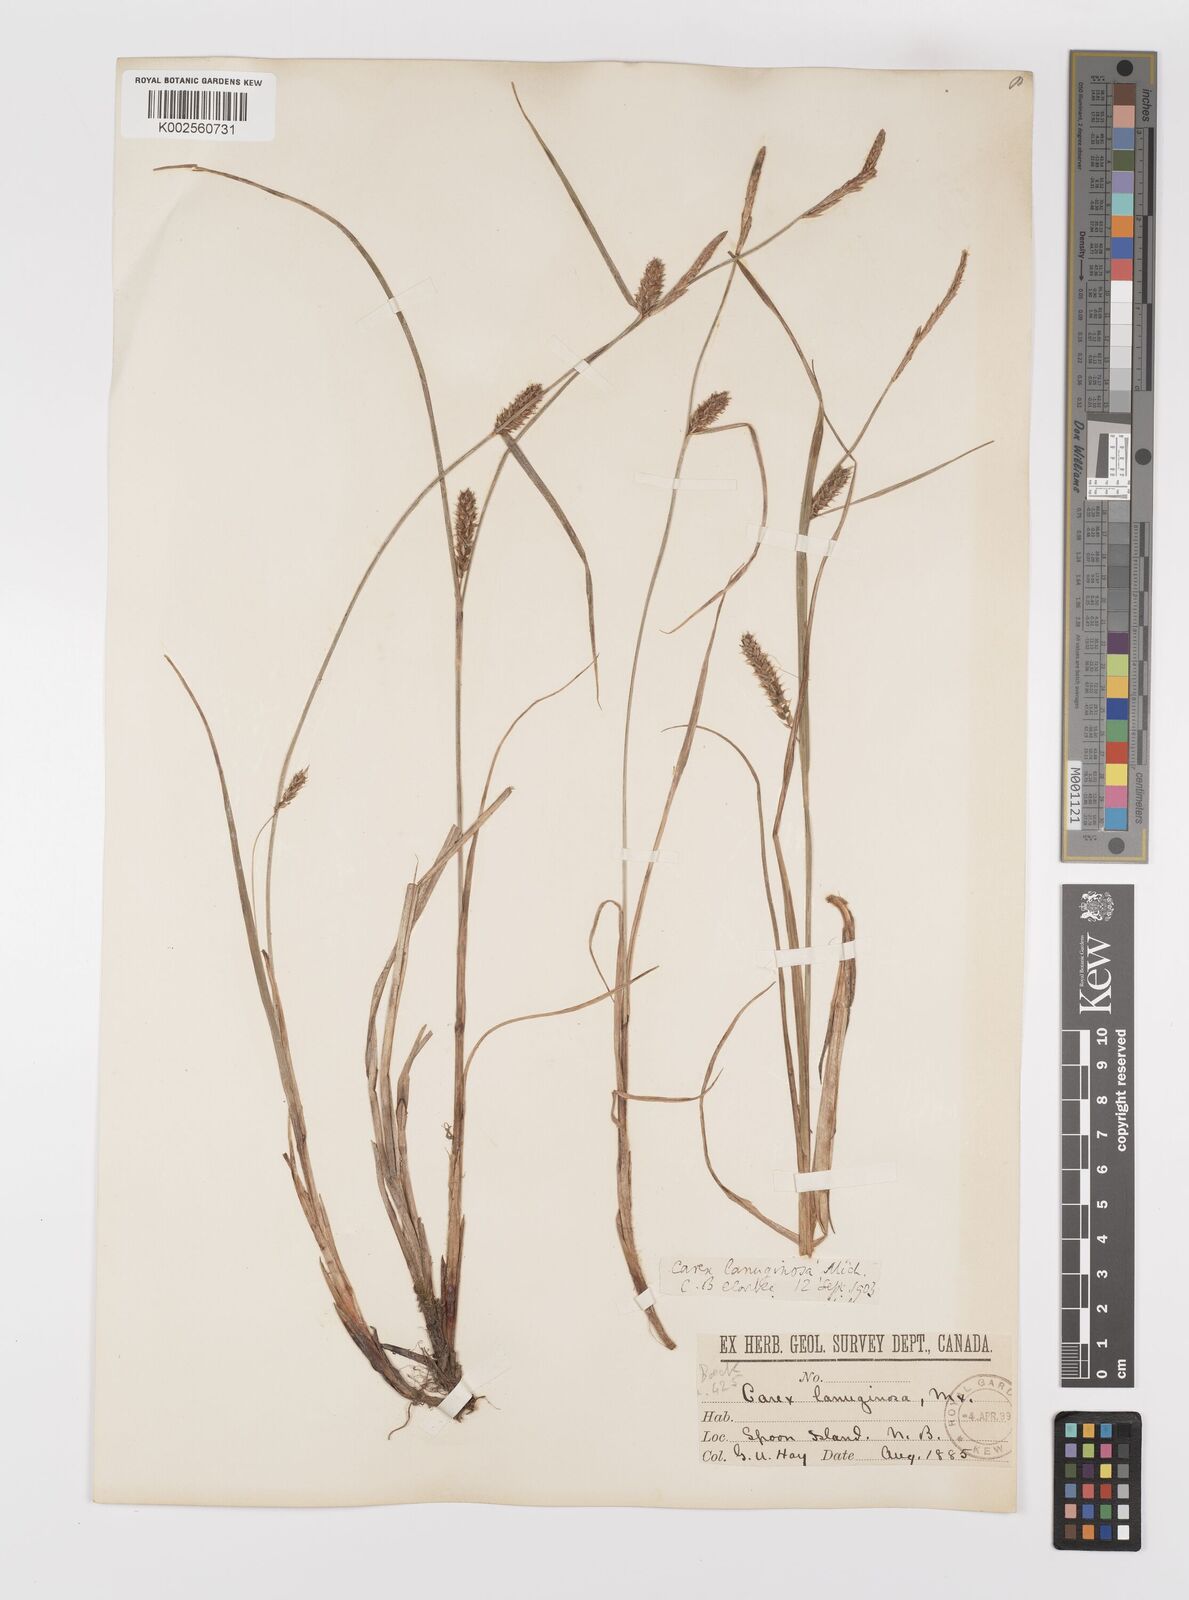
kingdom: Plantae
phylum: Tracheophyta
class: Liliopsida
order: Poales
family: Cyperaceae
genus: Carex
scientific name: Carex lasiocarpa
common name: Slender sedge
